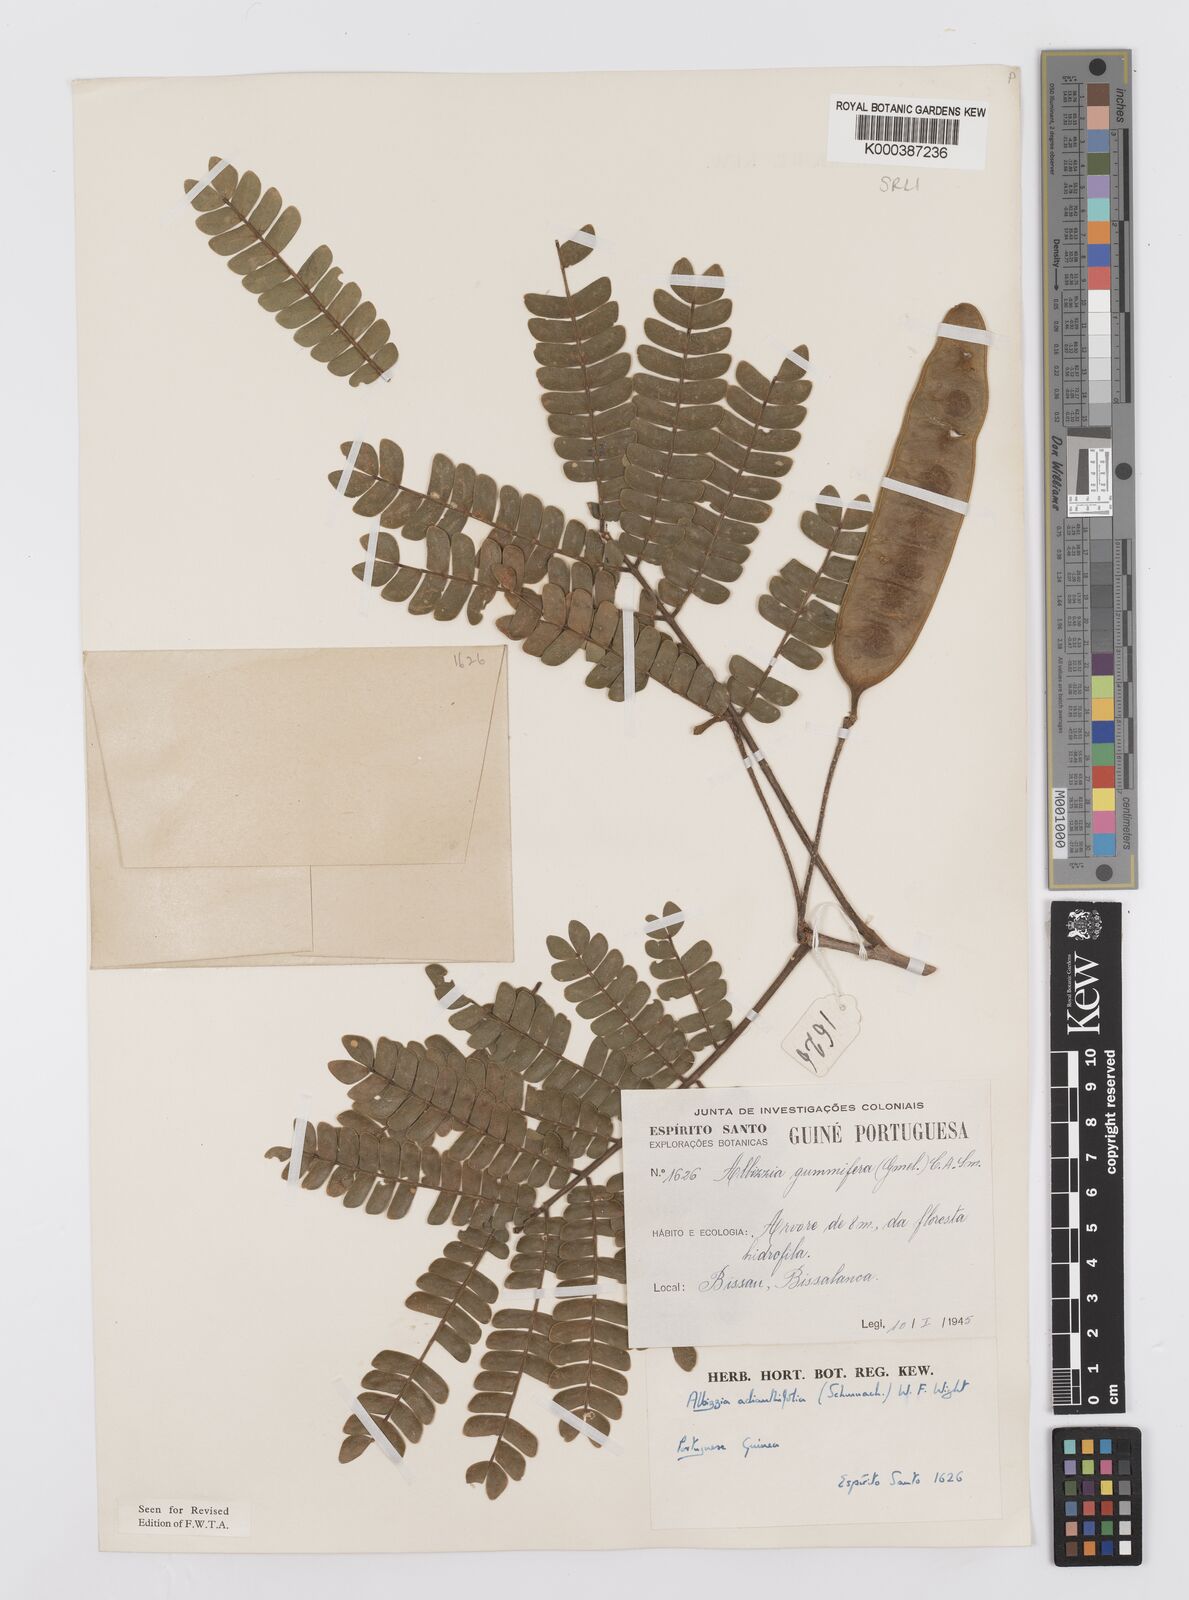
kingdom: Plantae
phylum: Tracheophyta
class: Magnoliopsida
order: Fabales
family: Fabaceae
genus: Albizia
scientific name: Albizia adianthifolia
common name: West african albizia
